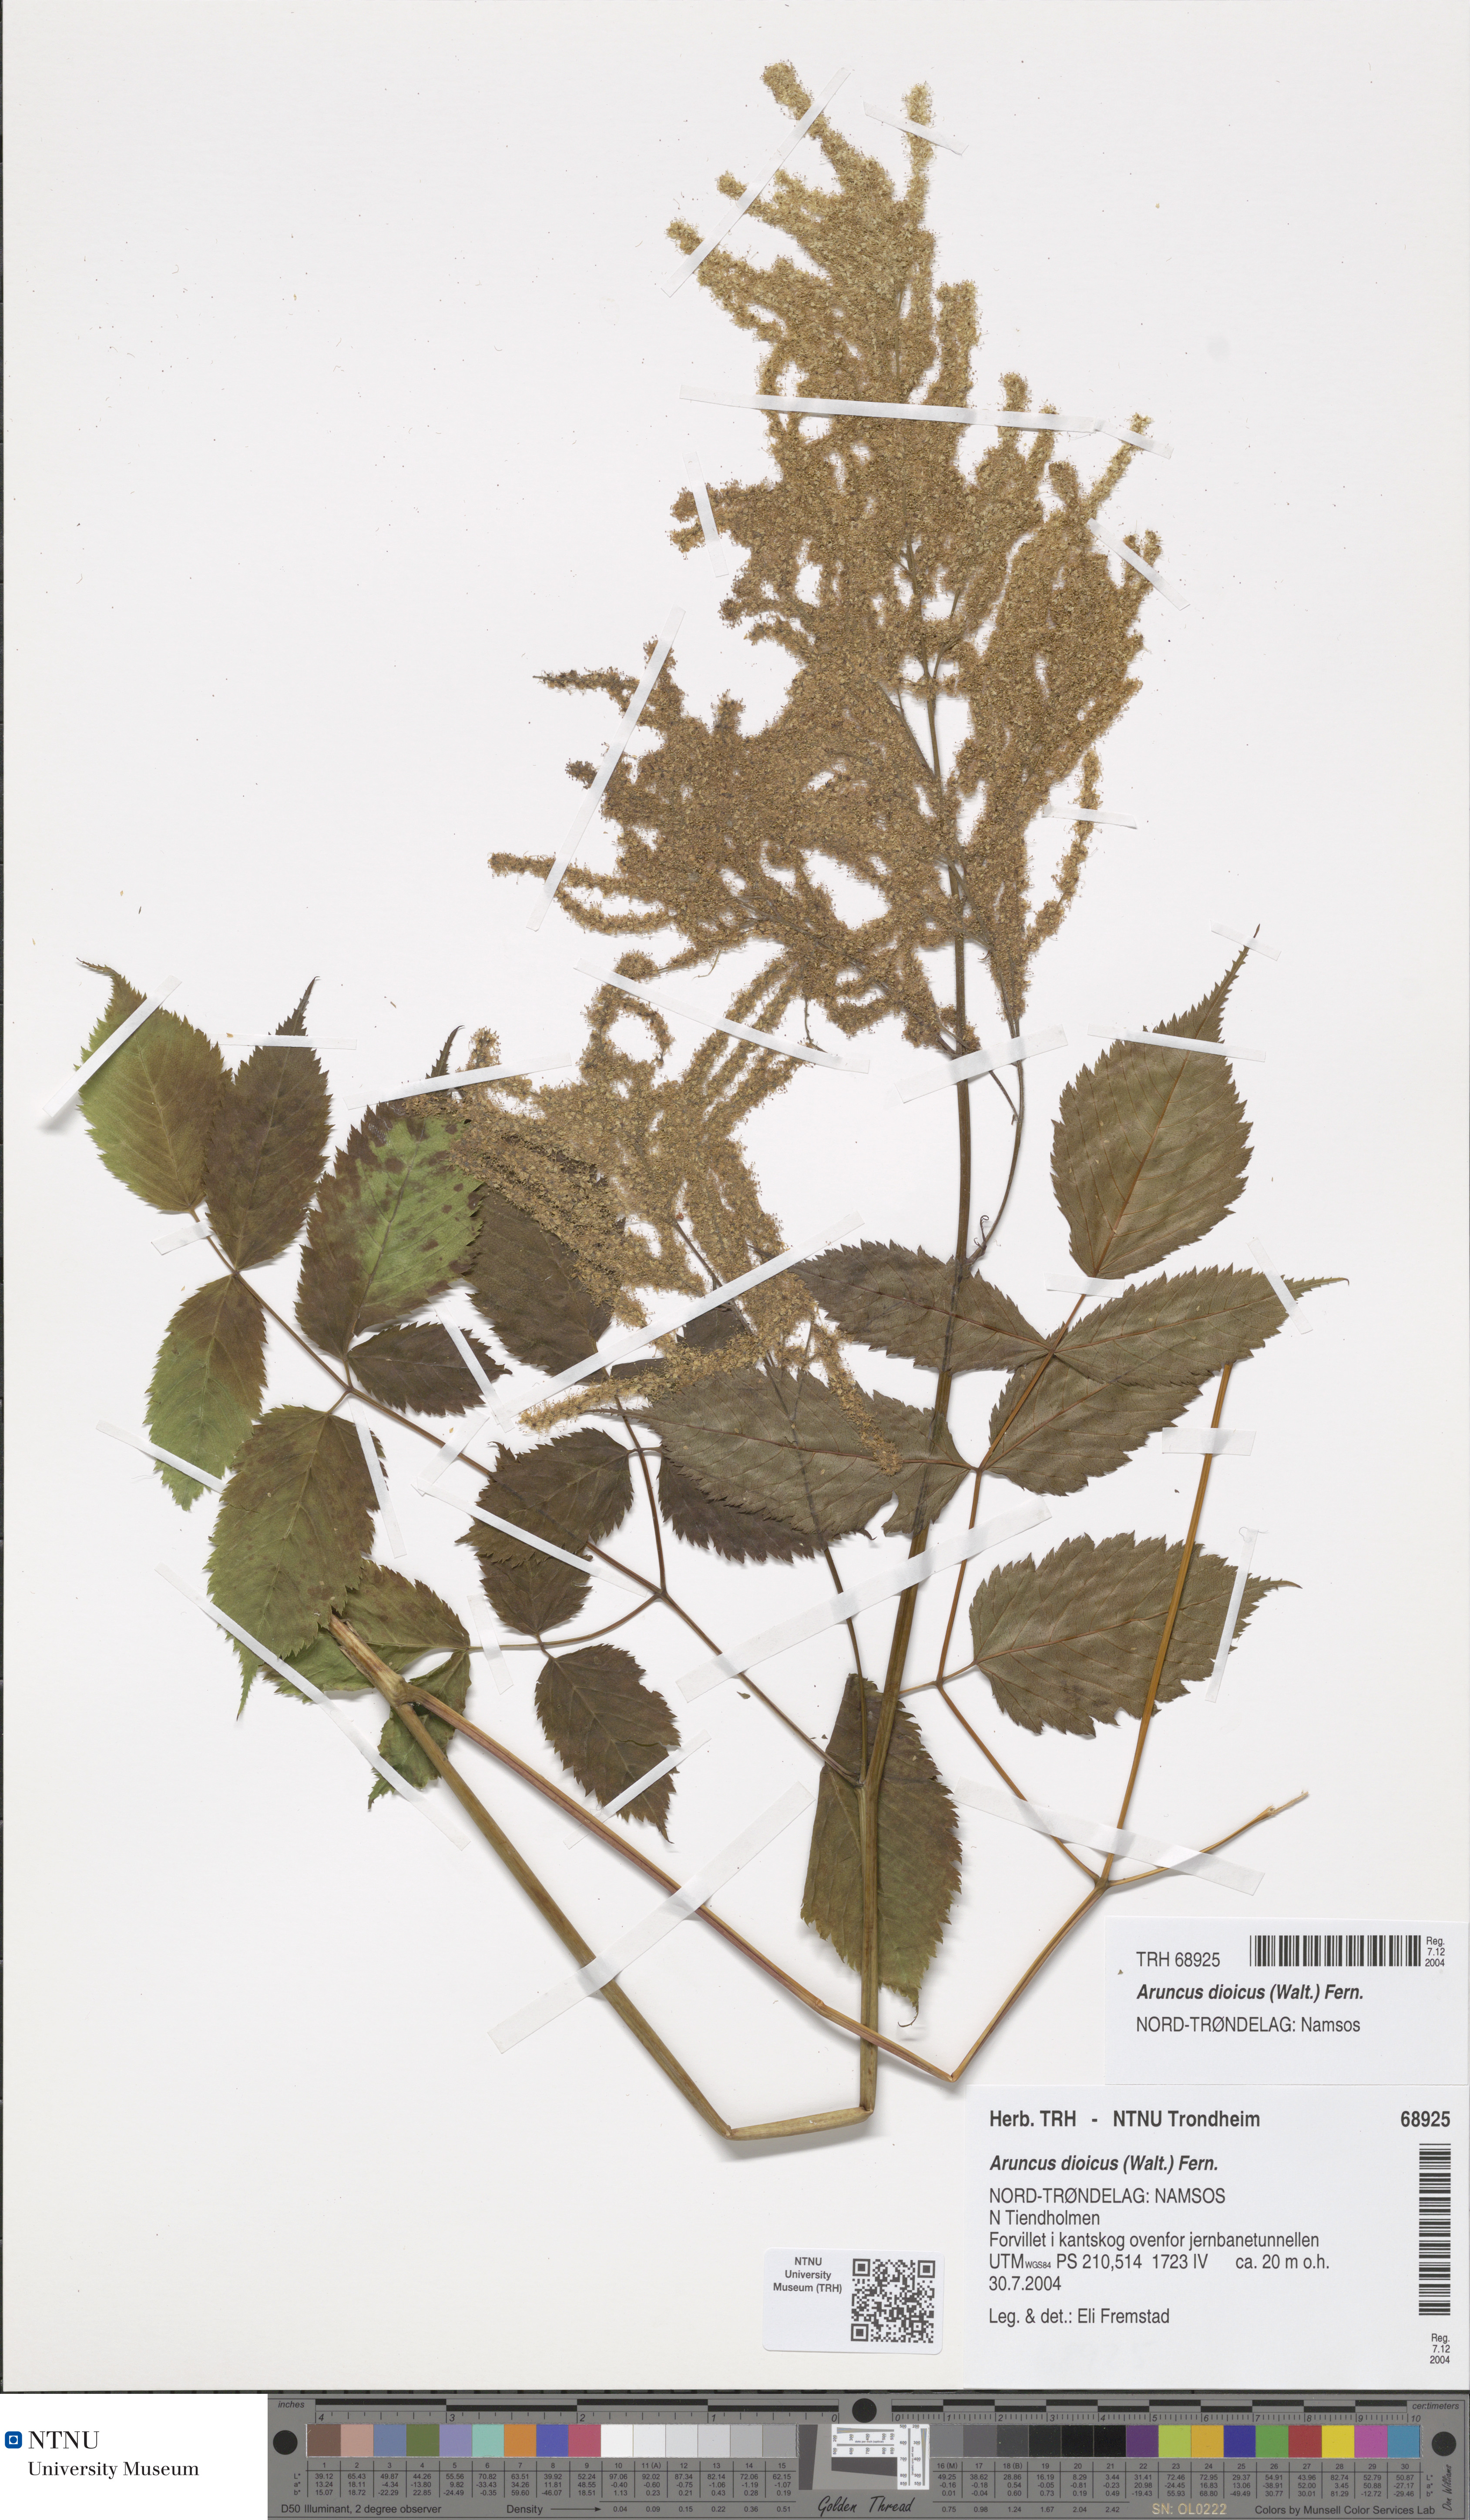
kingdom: Plantae
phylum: Tracheophyta
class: Magnoliopsida
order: Rosales
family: Rosaceae
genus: Aruncus
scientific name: Aruncus dioicus
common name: Buck's-beard
